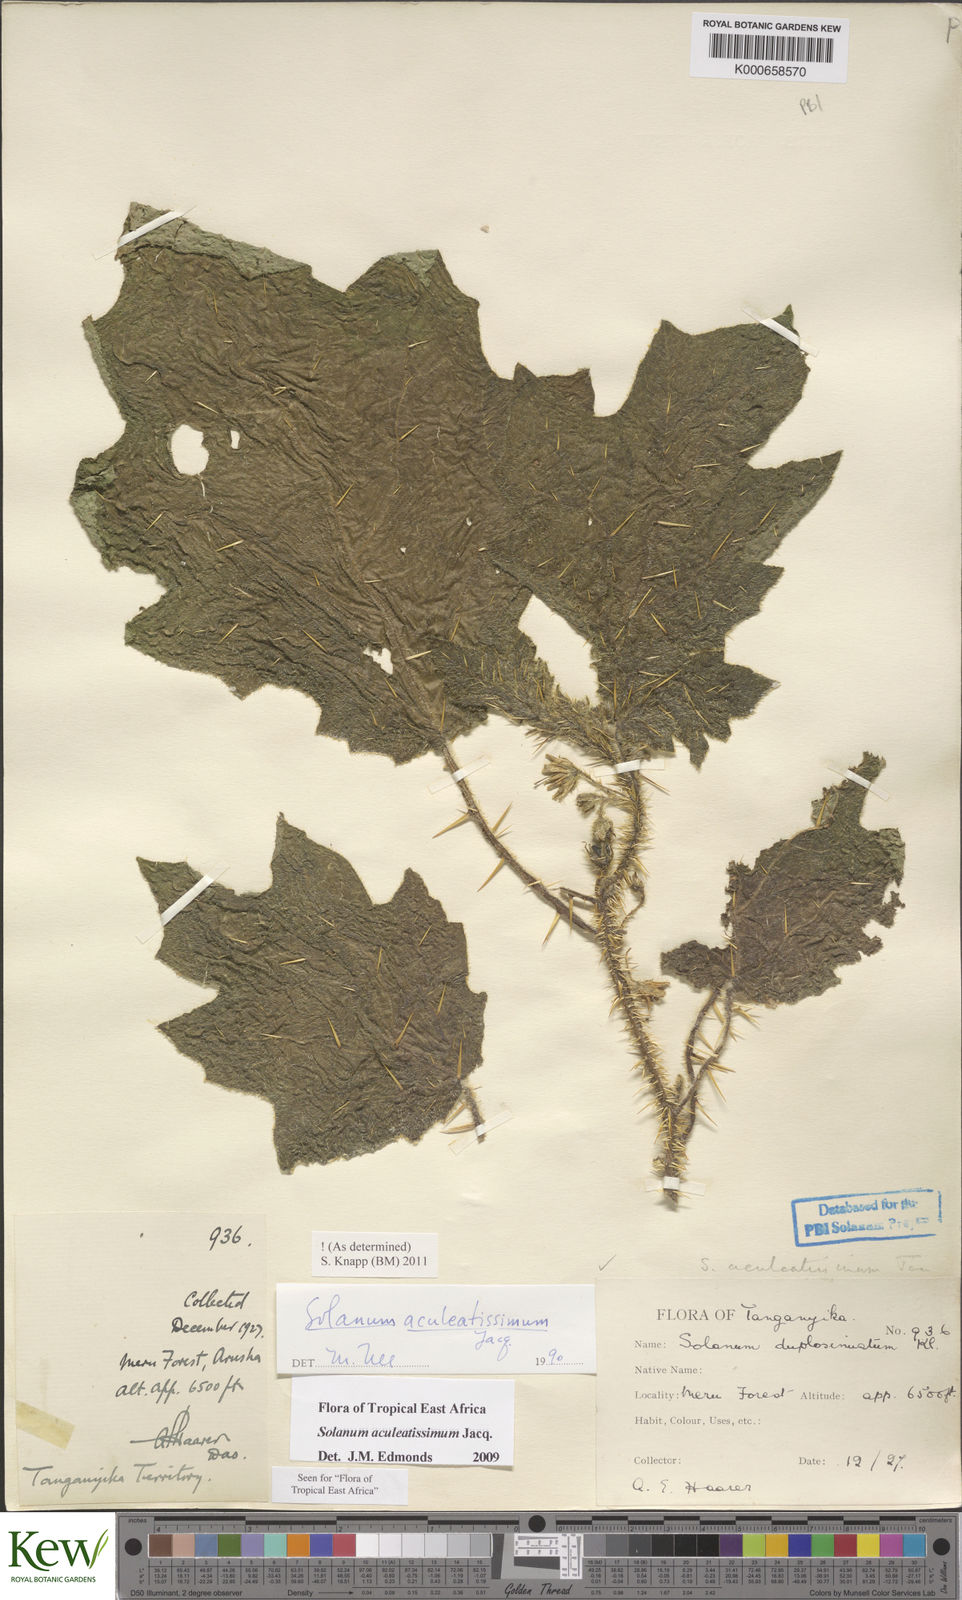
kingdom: Plantae
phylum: Tracheophyta
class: Magnoliopsida
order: Solanales
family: Solanaceae
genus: Solanum
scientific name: Solanum aculeatissimum
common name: Dutch eggplant
